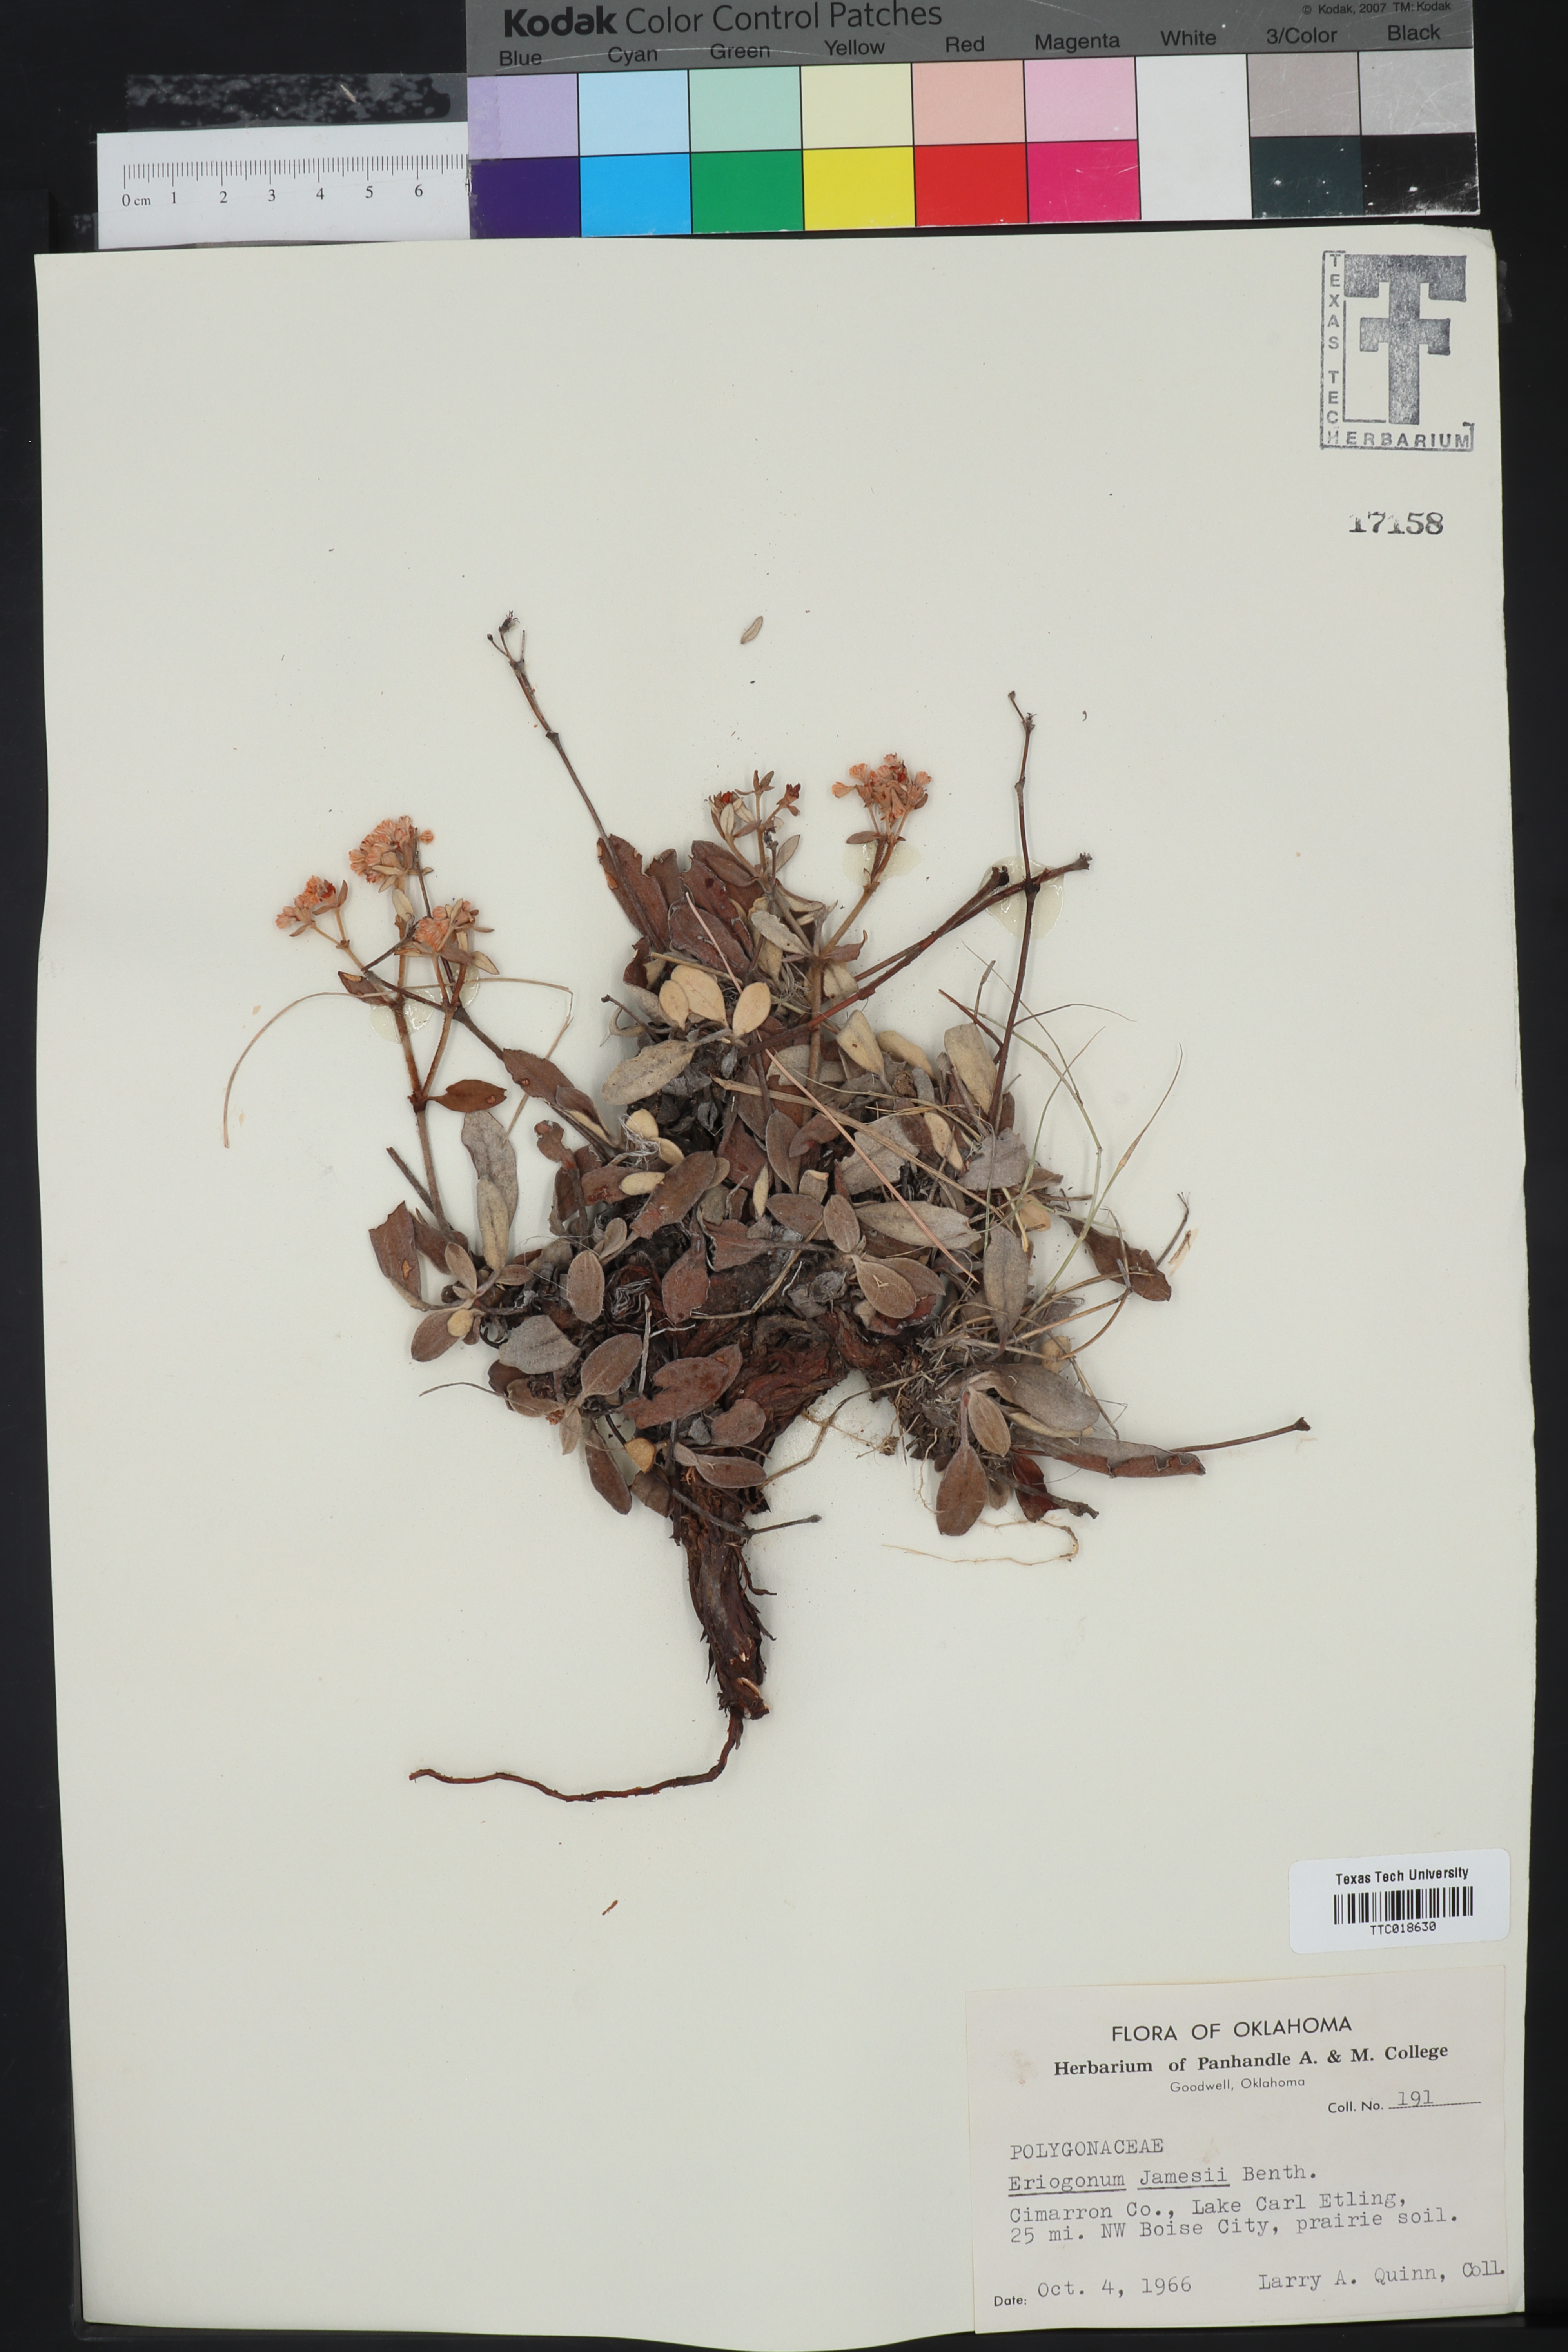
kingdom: Plantae
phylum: Tracheophyta
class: Magnoliopsida
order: Caryophyllales
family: Polygonaceae
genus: Eriogonum
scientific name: Eriogonum jamesii
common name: Antelope-sage
